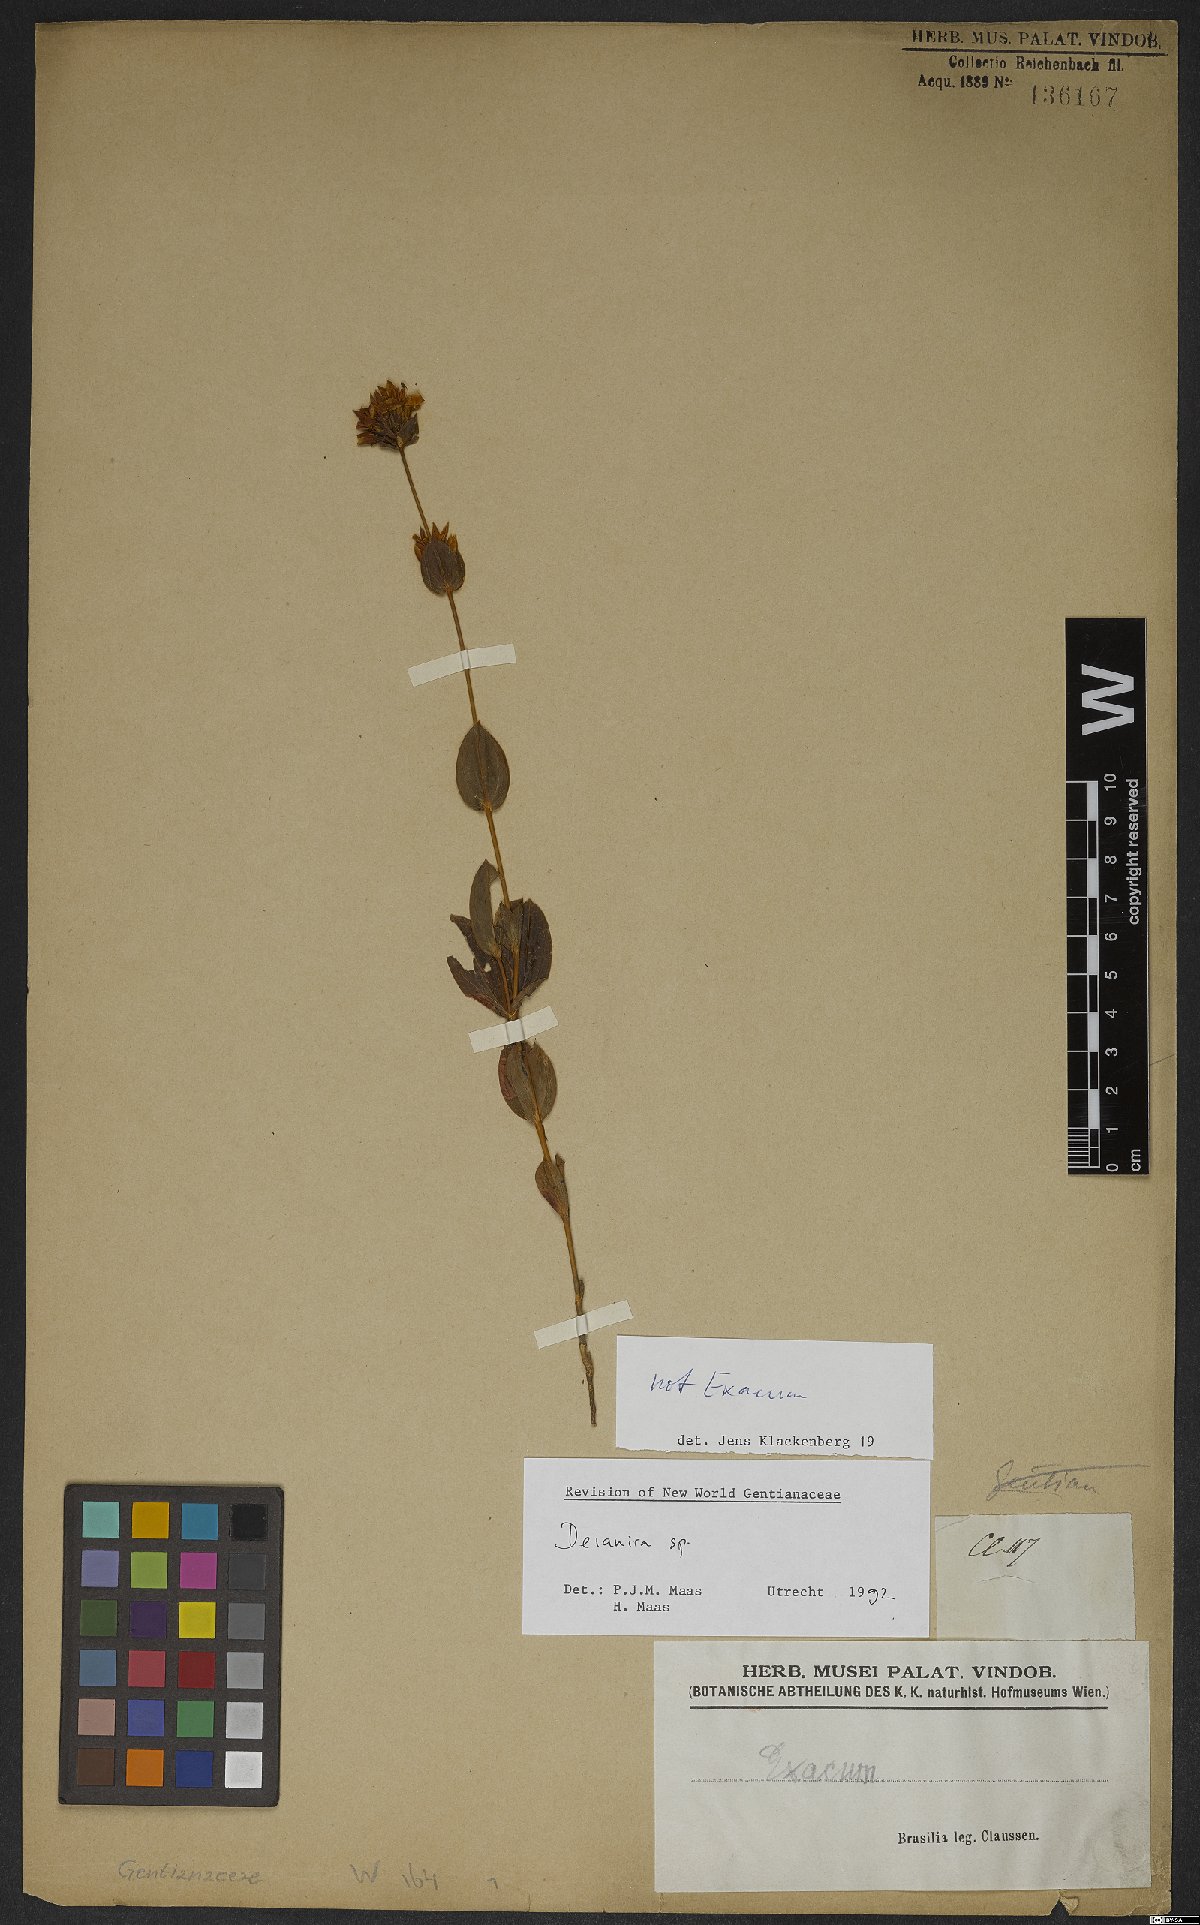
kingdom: Plantae
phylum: Tracheophyta
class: Magnoliopsida
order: Gentianales
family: Gentianaceae
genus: Deianira
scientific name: Deianira
